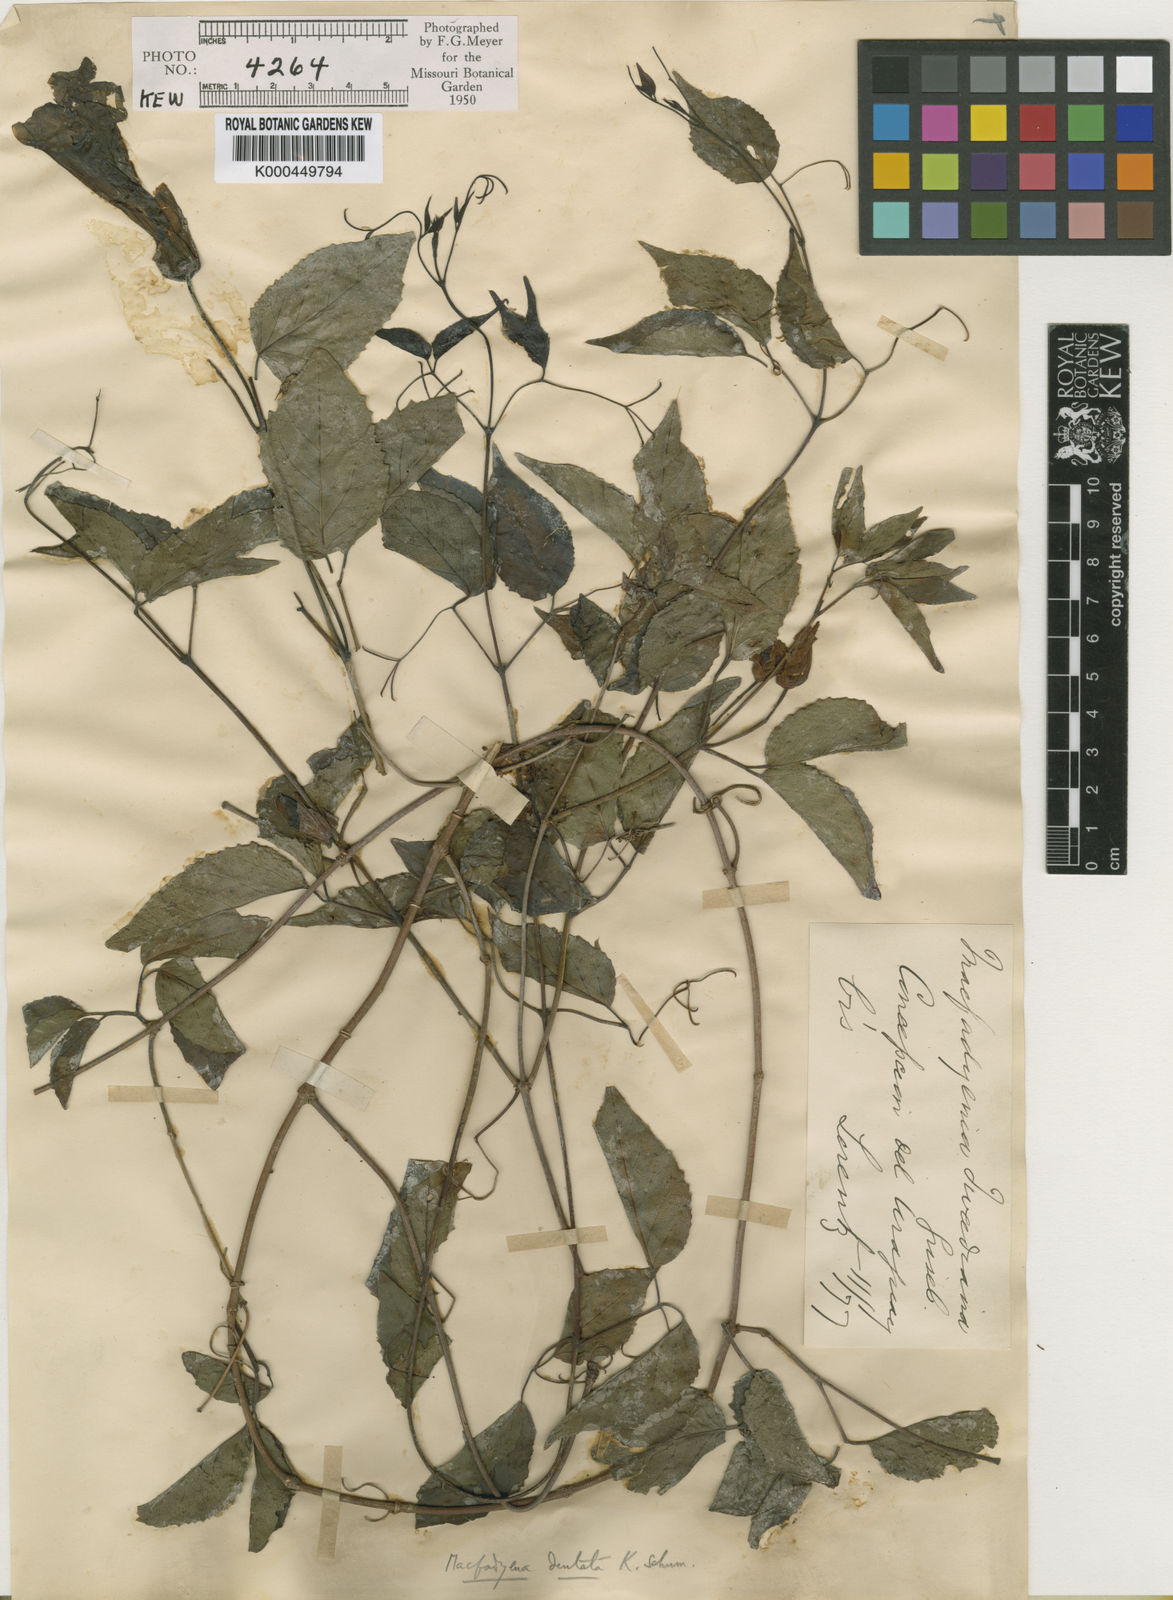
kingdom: Plantae
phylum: Tracheophyta
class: Magnoliopsida
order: Lamiales
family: Bignoniaceae
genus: Dolichandra
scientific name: Dolichandra dentata
